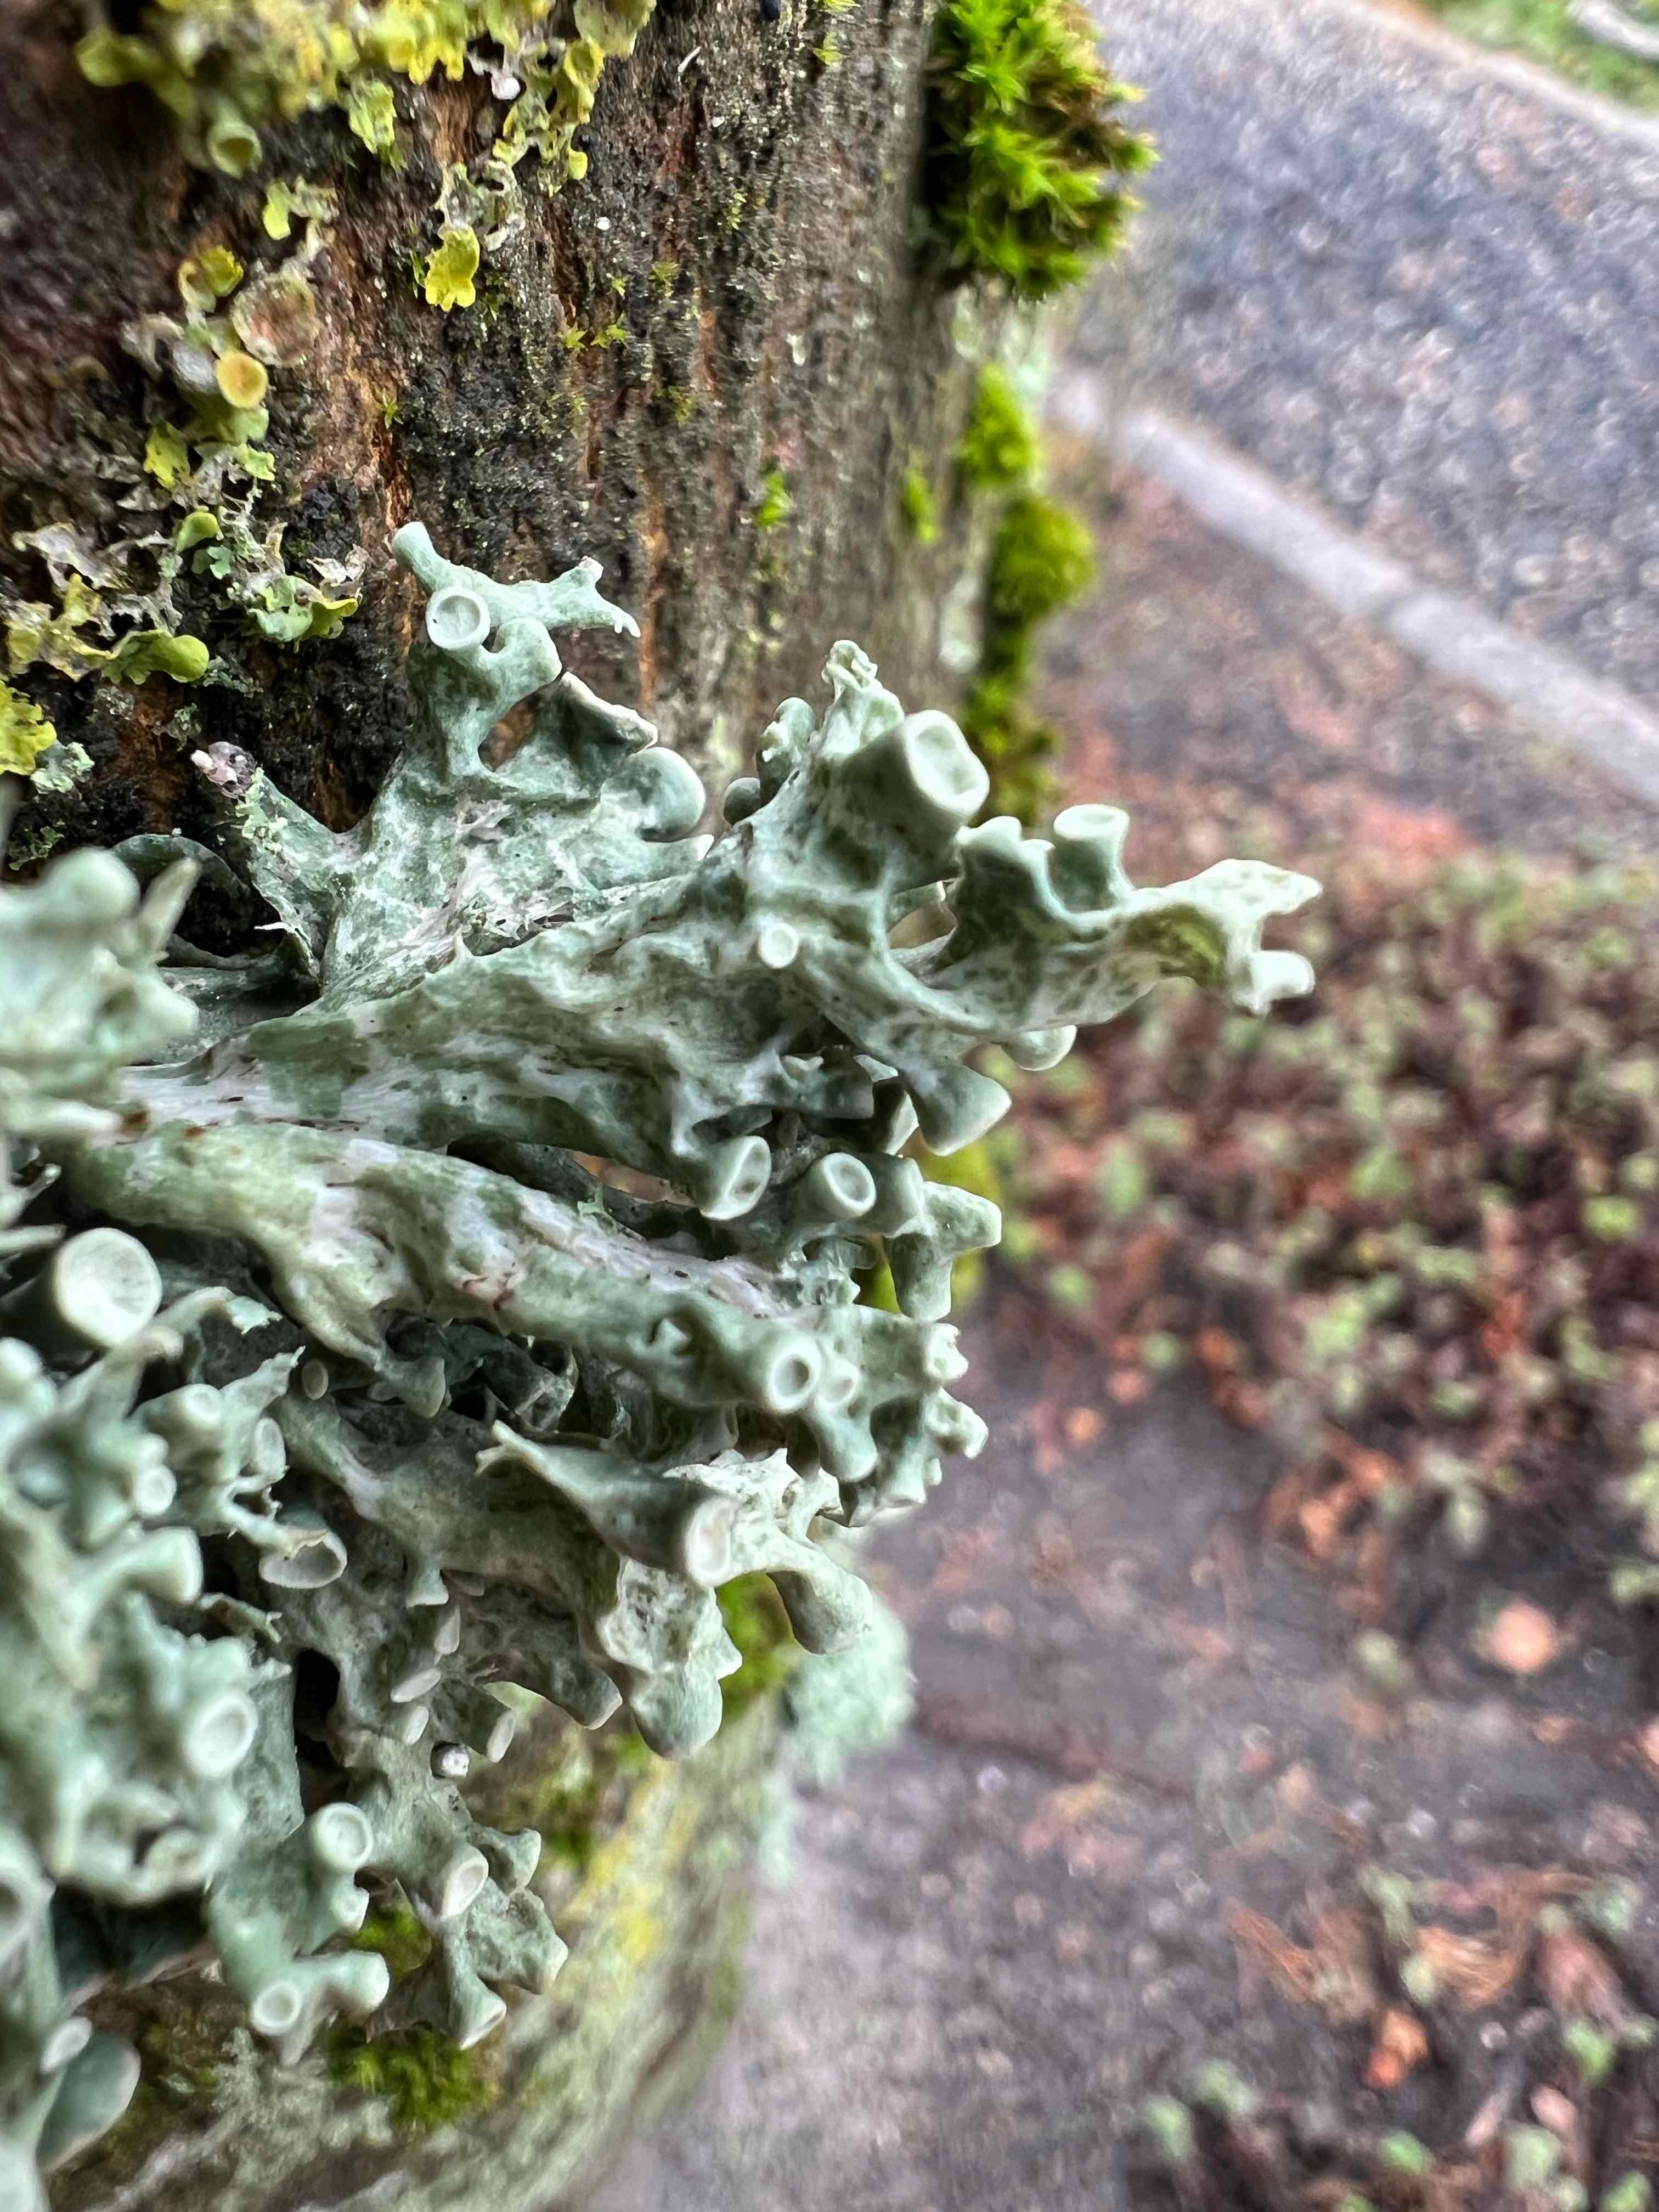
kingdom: Fungi
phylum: Ascomycota
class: Lecanoromycetes
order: Lecanorales
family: Ramalinaceae
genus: Ramalina
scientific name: Ramalina fastigiata
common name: tue-grenlav
